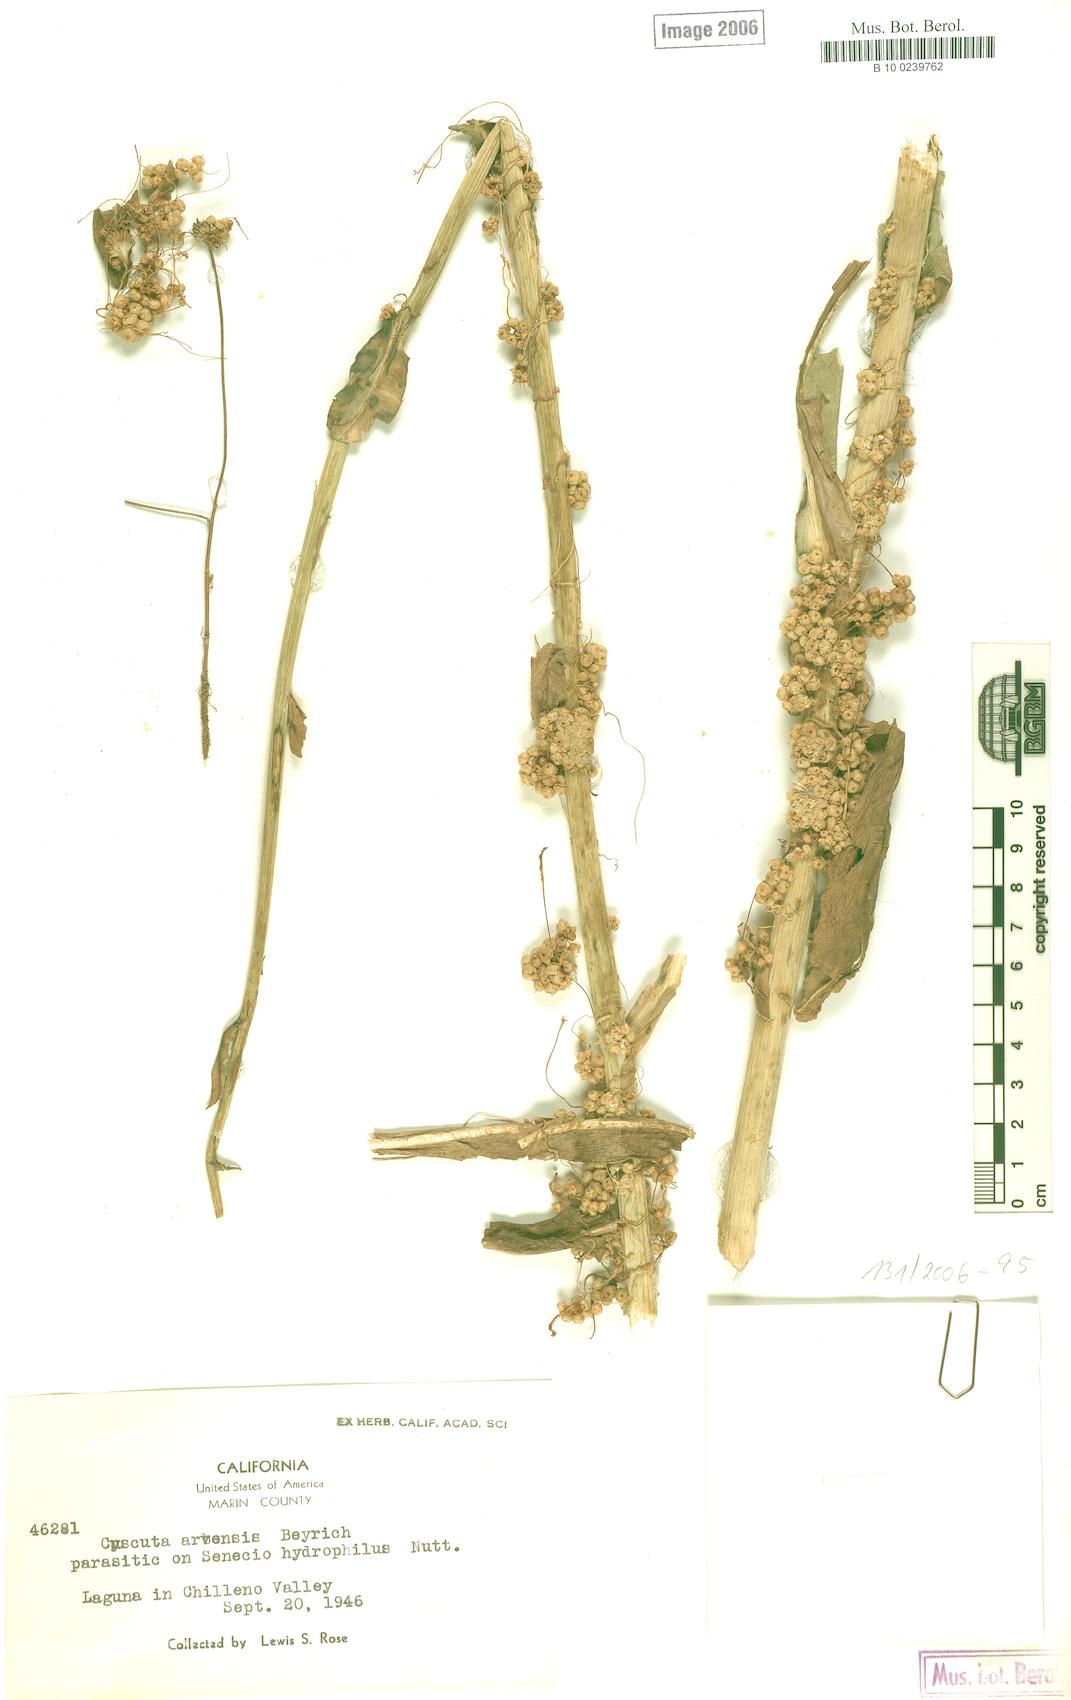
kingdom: Plantae
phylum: Tracheophyta
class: Magnoliopsida
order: Solanales
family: Convolvulaceae
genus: Cuscuta
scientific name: Cuscuta campestris
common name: Yellow dodder
